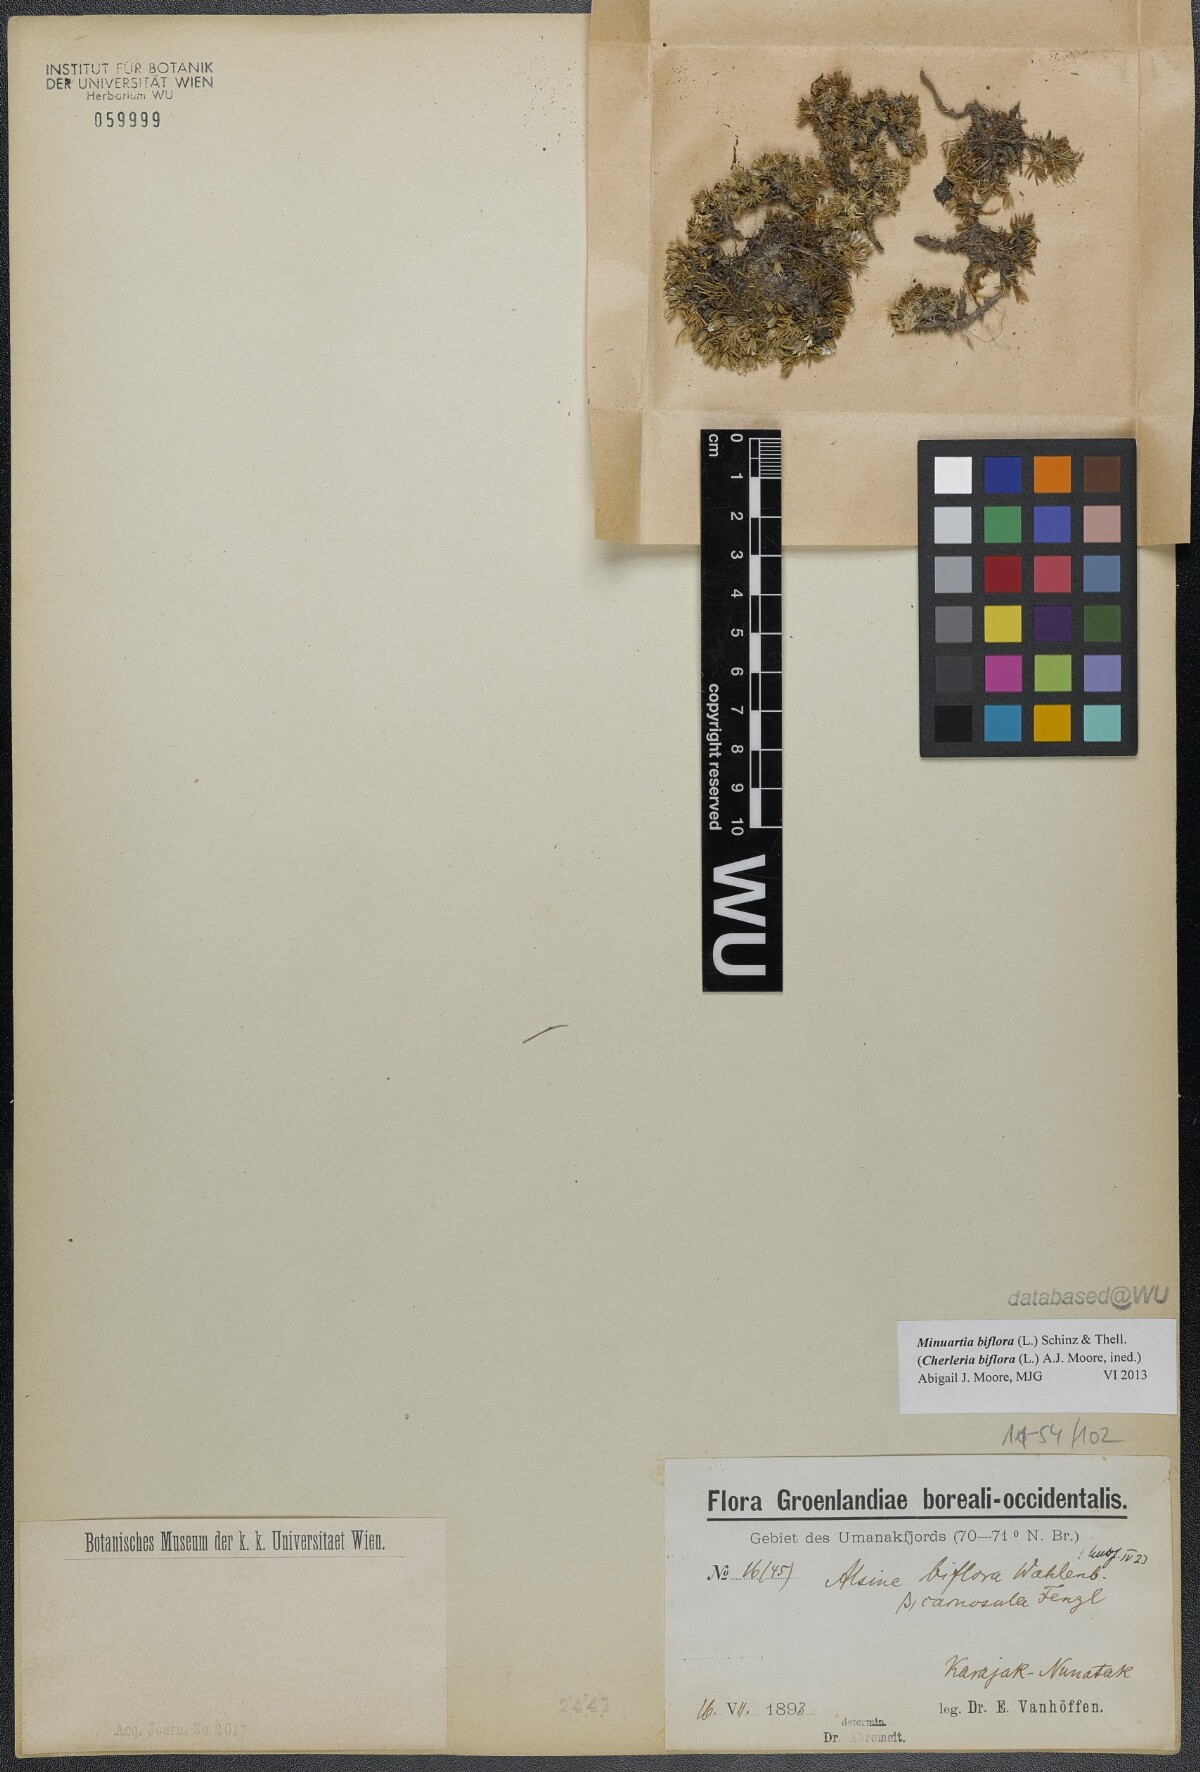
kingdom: Plantae
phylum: Tracheophyta
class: Magnoliopsida
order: Caryophyllales
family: Caryophyllaceae
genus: Cherleria
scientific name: Cherleria biflora
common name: Mountain sandwort
